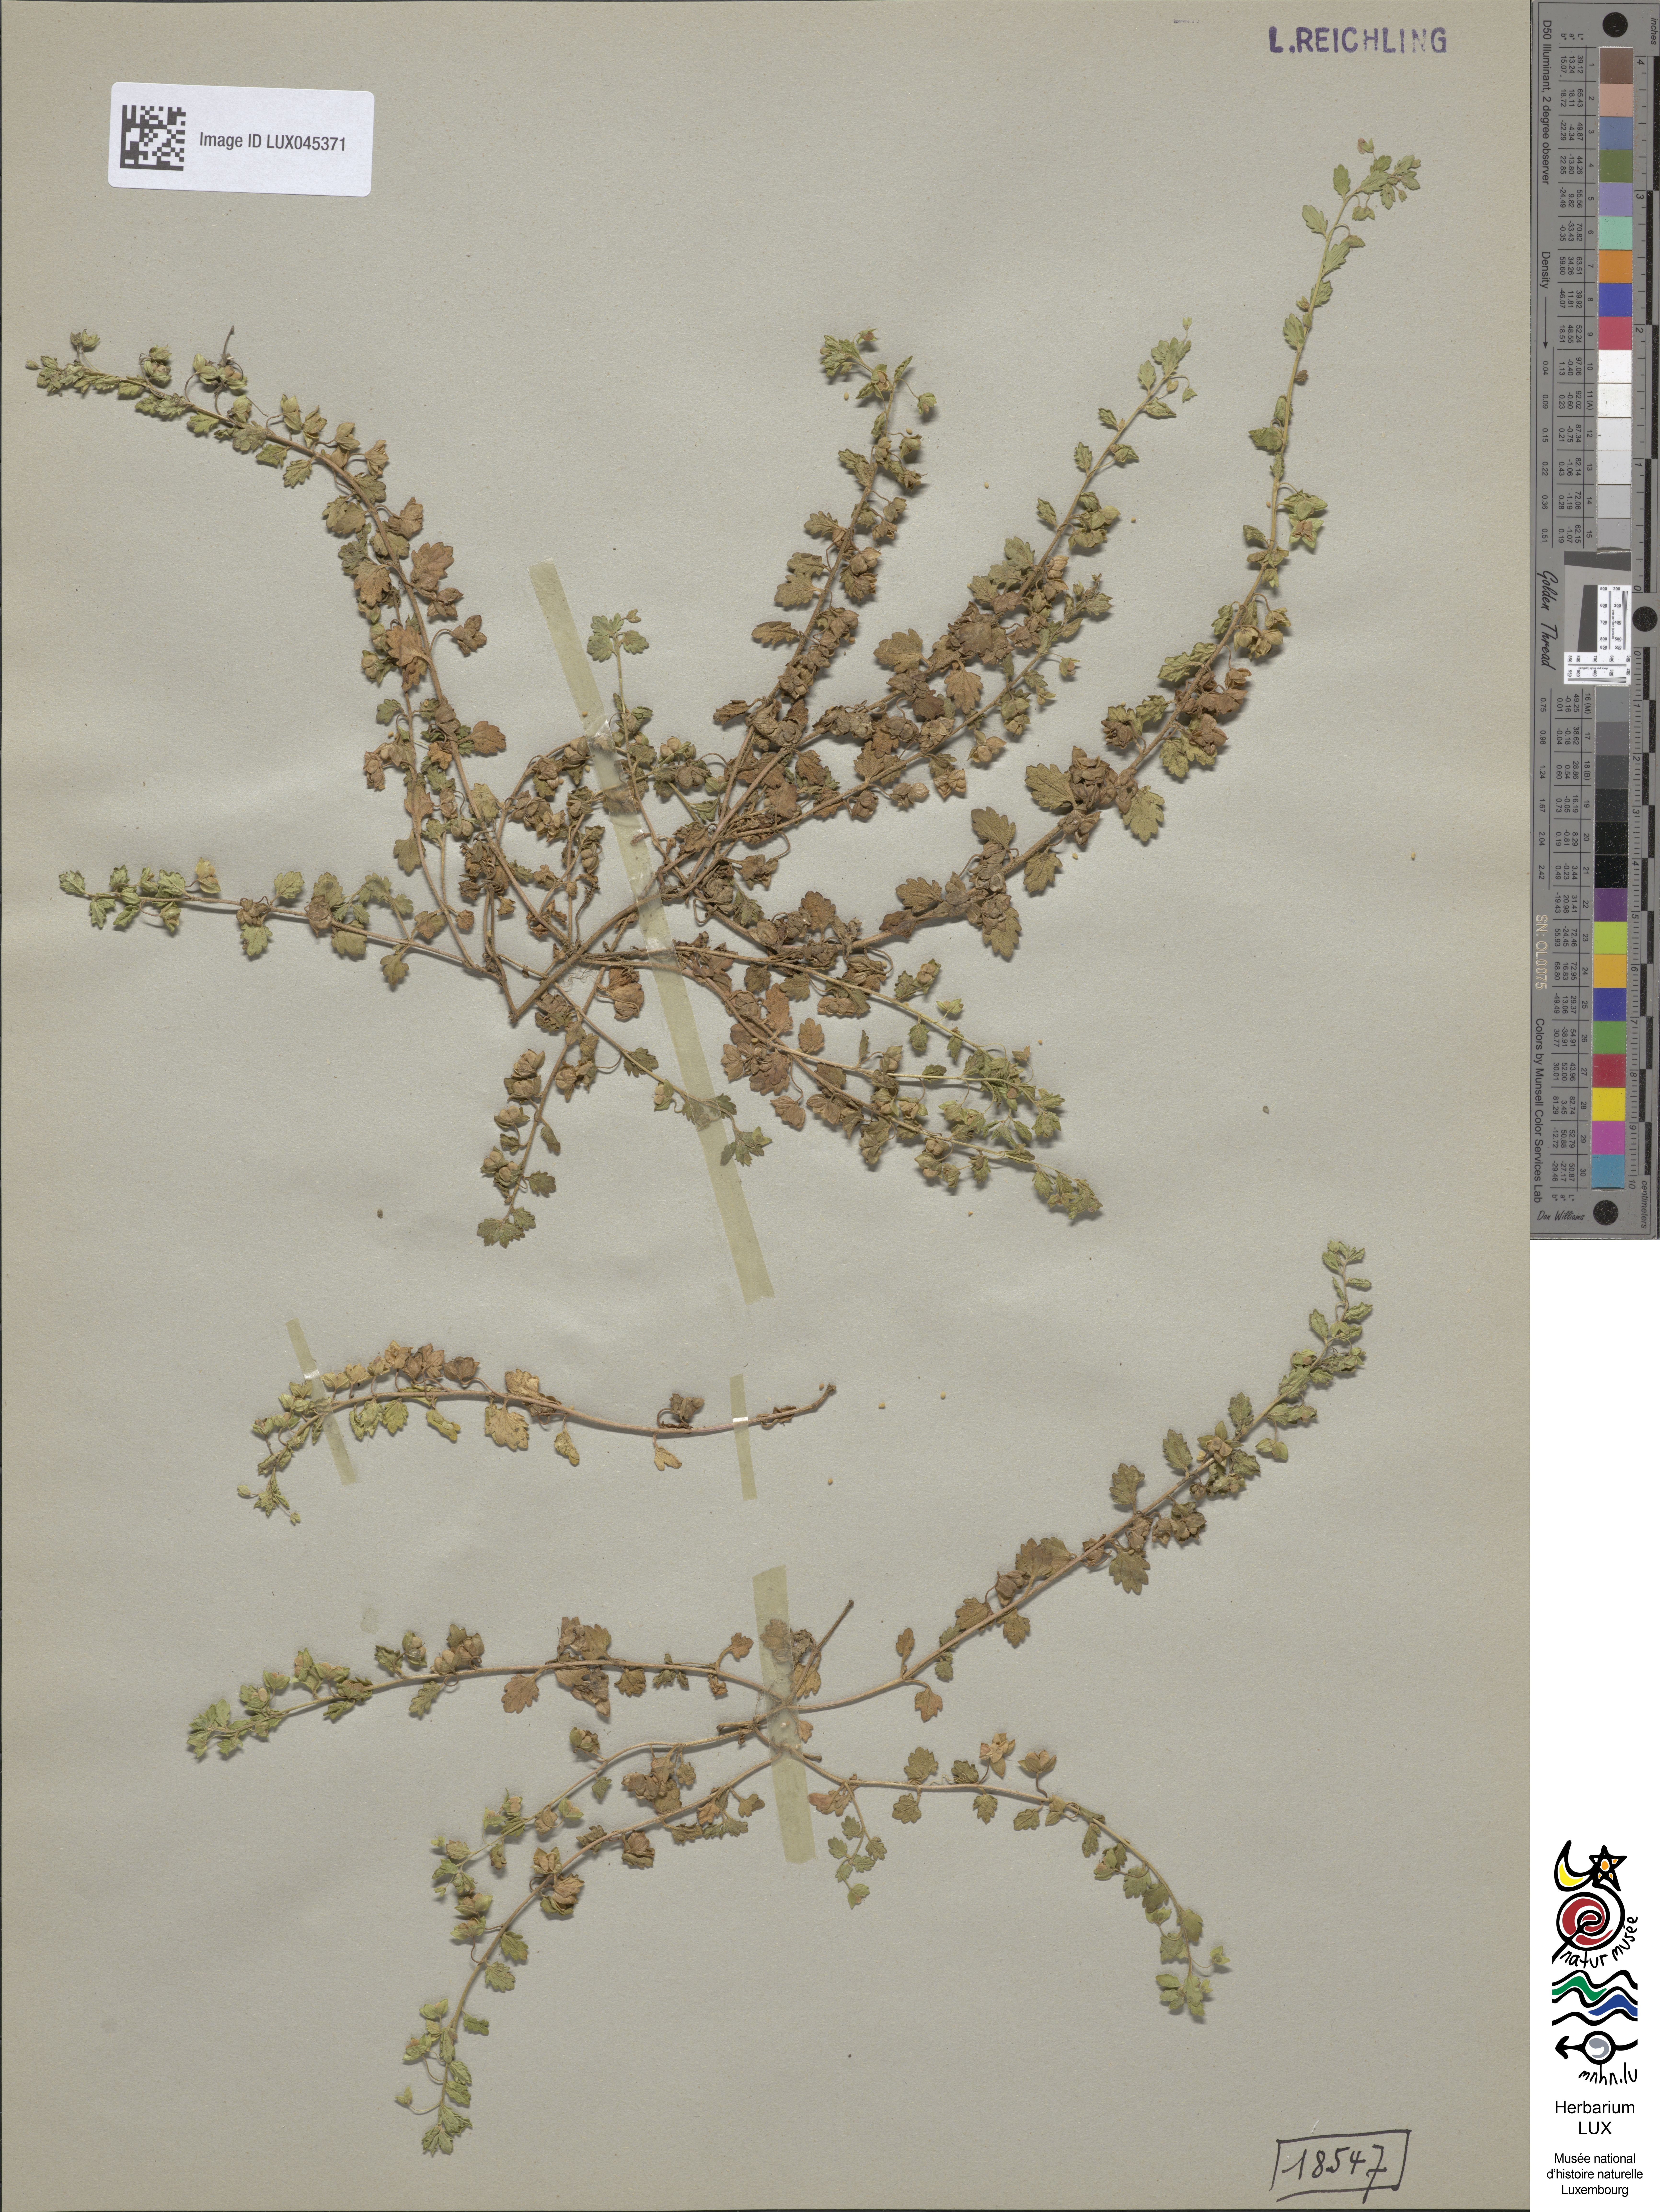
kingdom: Plantae
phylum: Tracheophyta
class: Magnoliopsida
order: Lamiales
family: Plantaginaceae
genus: Veronica
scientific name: Veronica polita
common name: Grey field-speedwell
